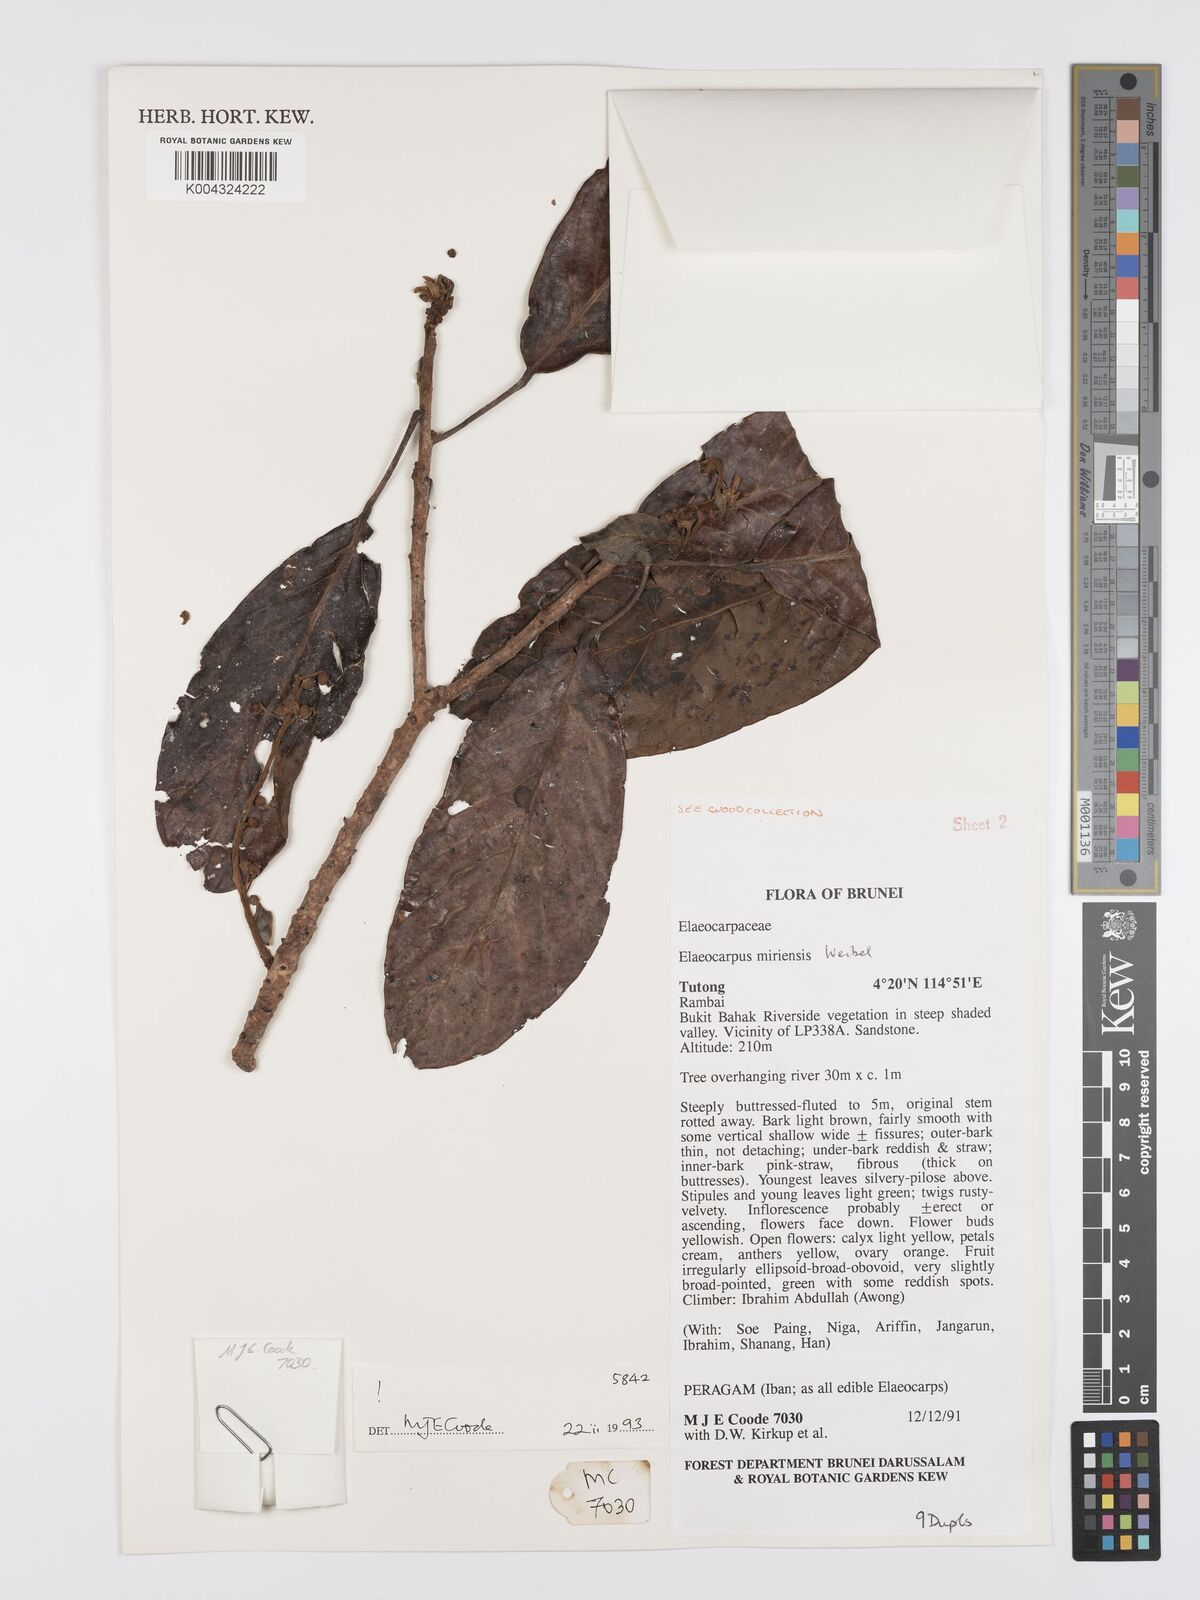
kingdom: Plantae
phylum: Tracheophyta
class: Magnoliopsida
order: Oxalidales
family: Elaeocarpaceae
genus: Elaeocarpus
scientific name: Elaeocarpus miriensis
